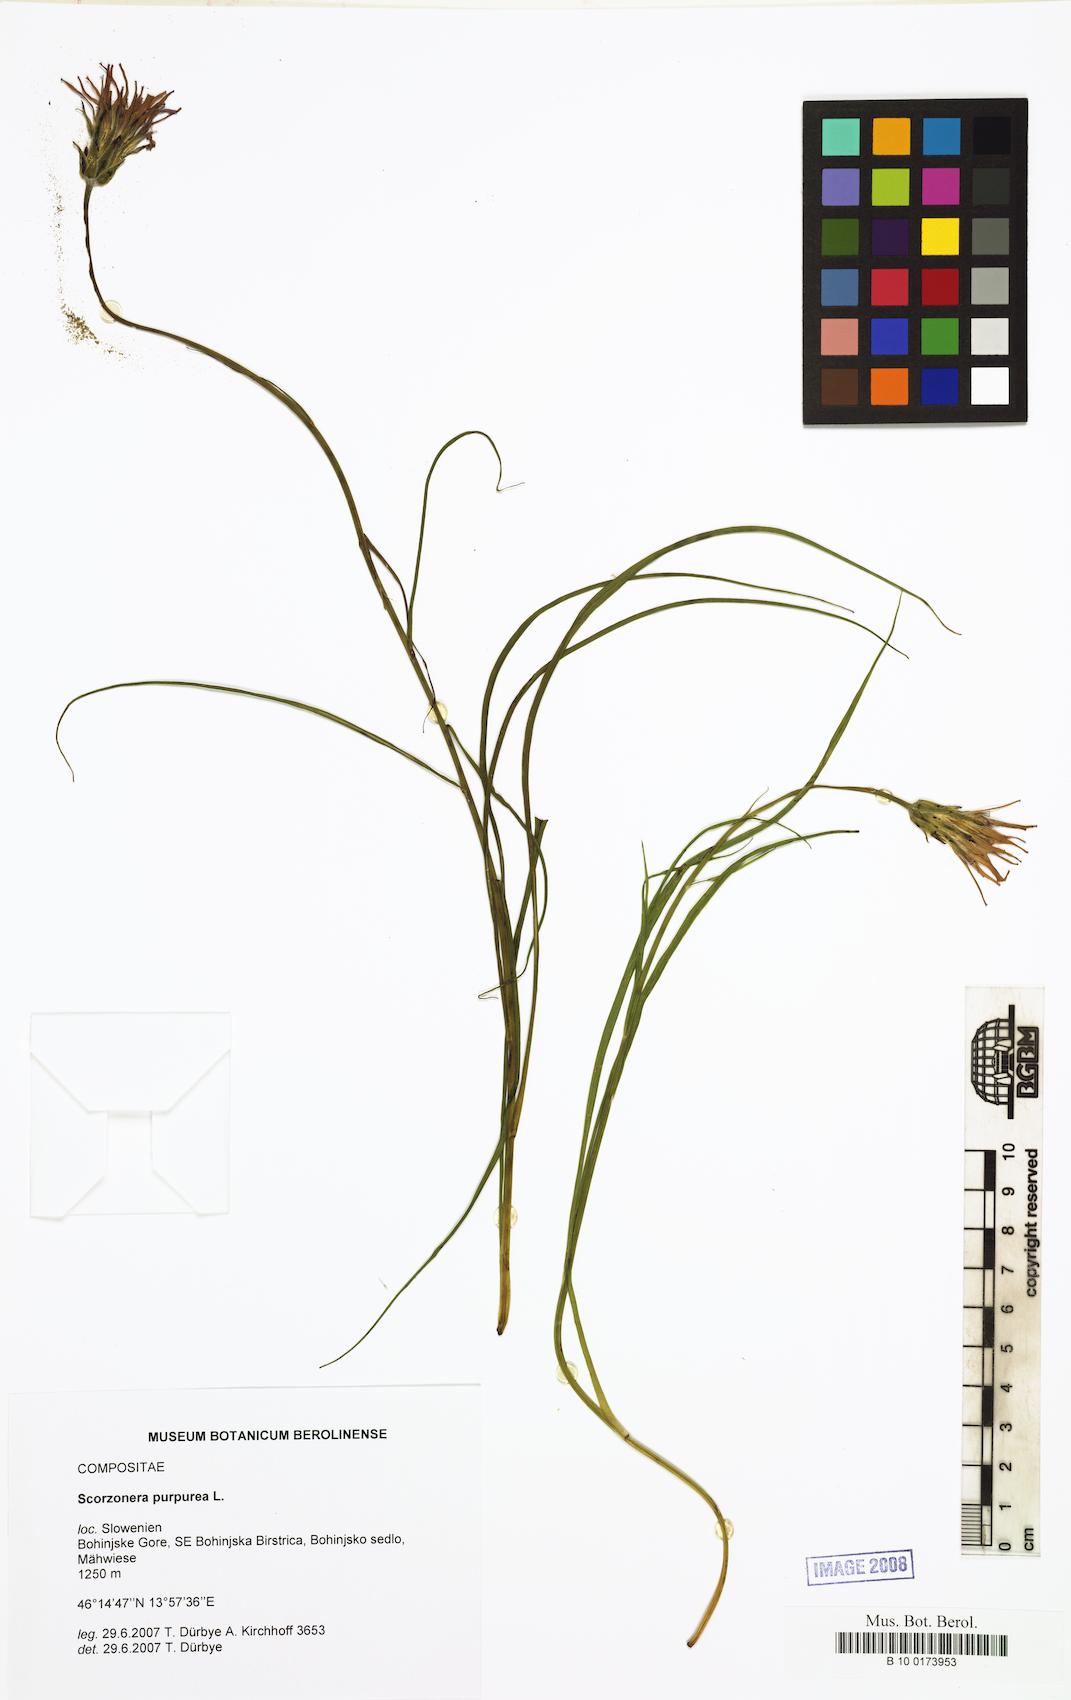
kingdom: Plantae
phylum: Tracheophyta
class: Magnoliopsida
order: Asterales
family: Asteraceae
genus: Scorzonera
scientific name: Scorzonera purpurea
